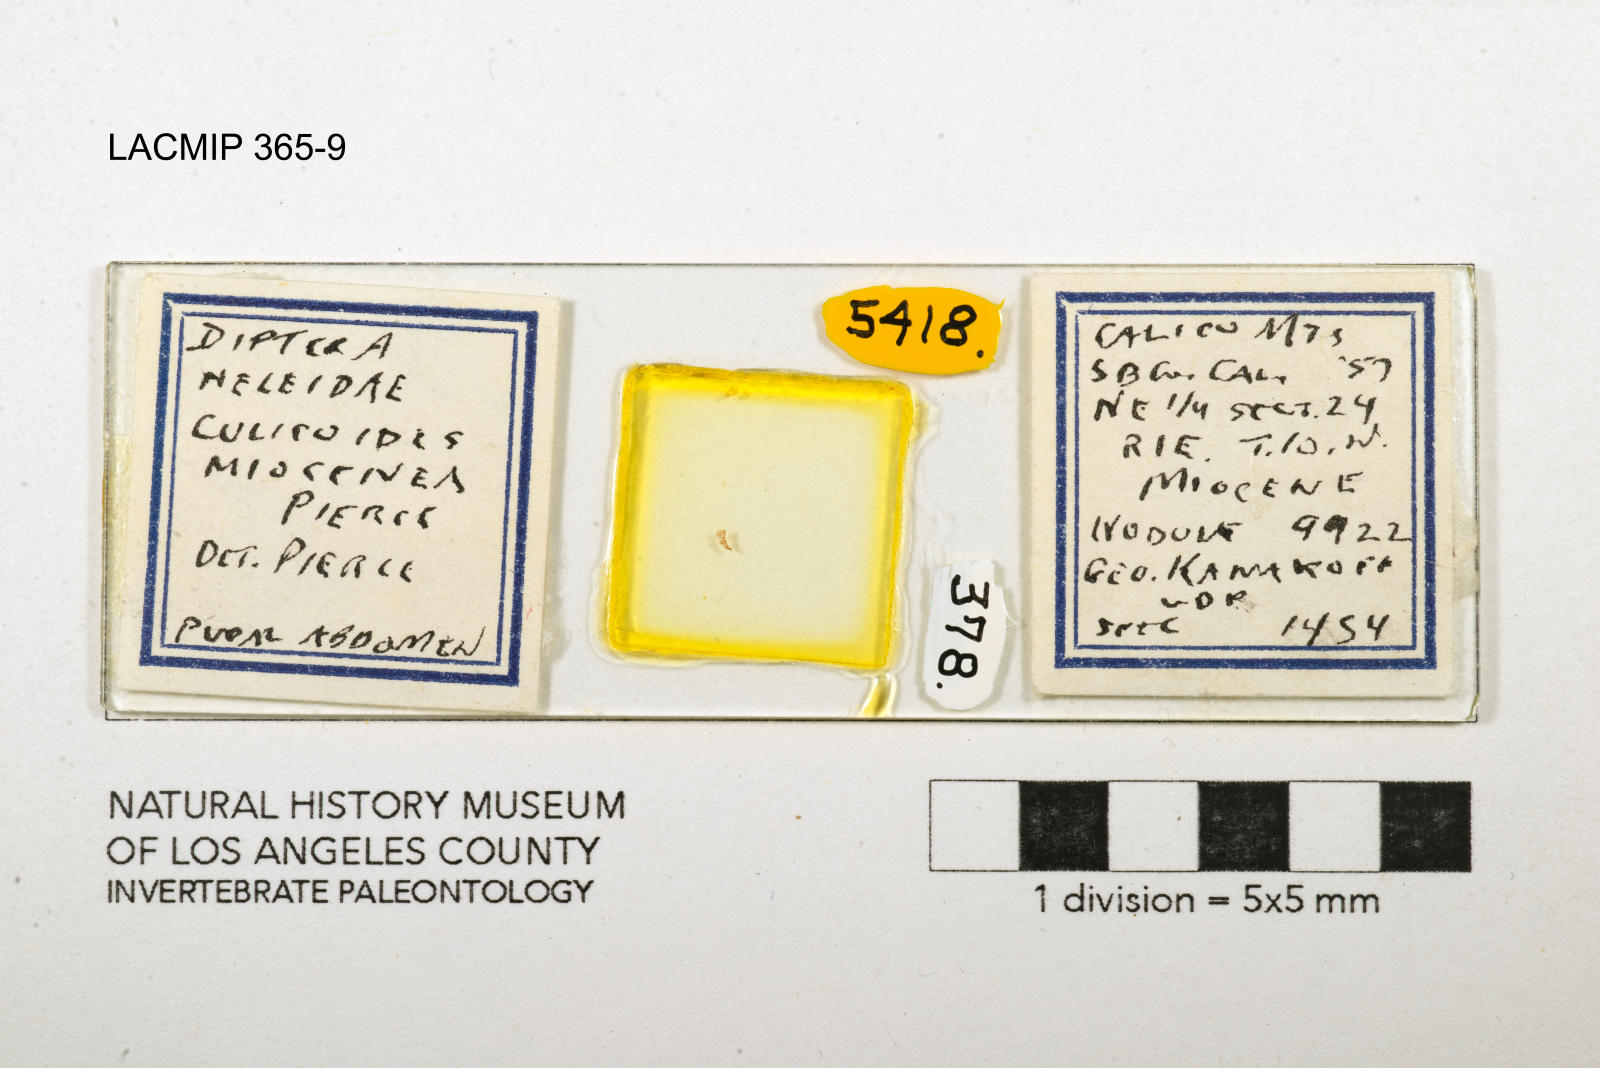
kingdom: Animalia
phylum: Arthropoda
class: Insecta
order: Diptera
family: Ceratopogonidae
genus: Culicoides
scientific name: Culicoides miocenicus
